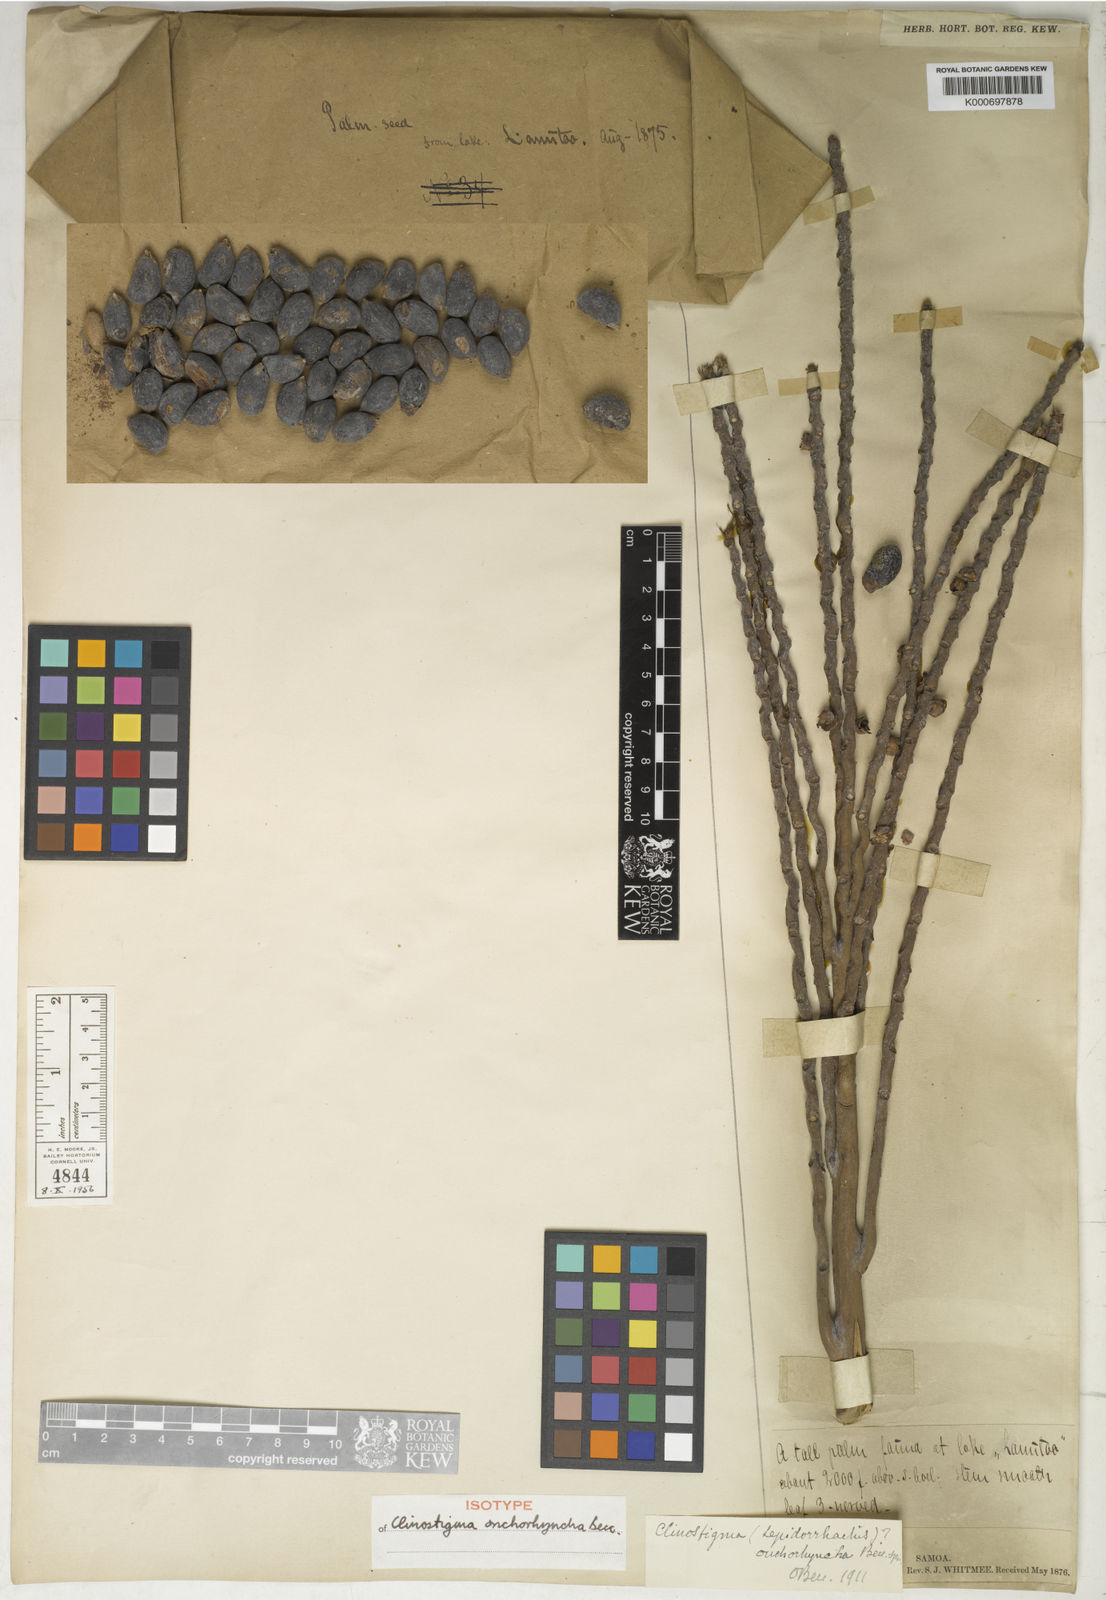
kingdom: Plantae
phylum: Tracheophyta
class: Liliopsida
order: Arecales
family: Arecaceae
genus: Clinostigma
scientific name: Clinostigma onchorhynchum
